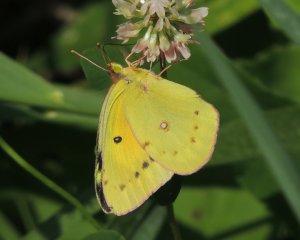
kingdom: Animalia
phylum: Arthropoda
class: Insecta
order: Lepidoptera
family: Pieridae
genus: Colias
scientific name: Colias eurytheme
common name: Orange Sulphur
